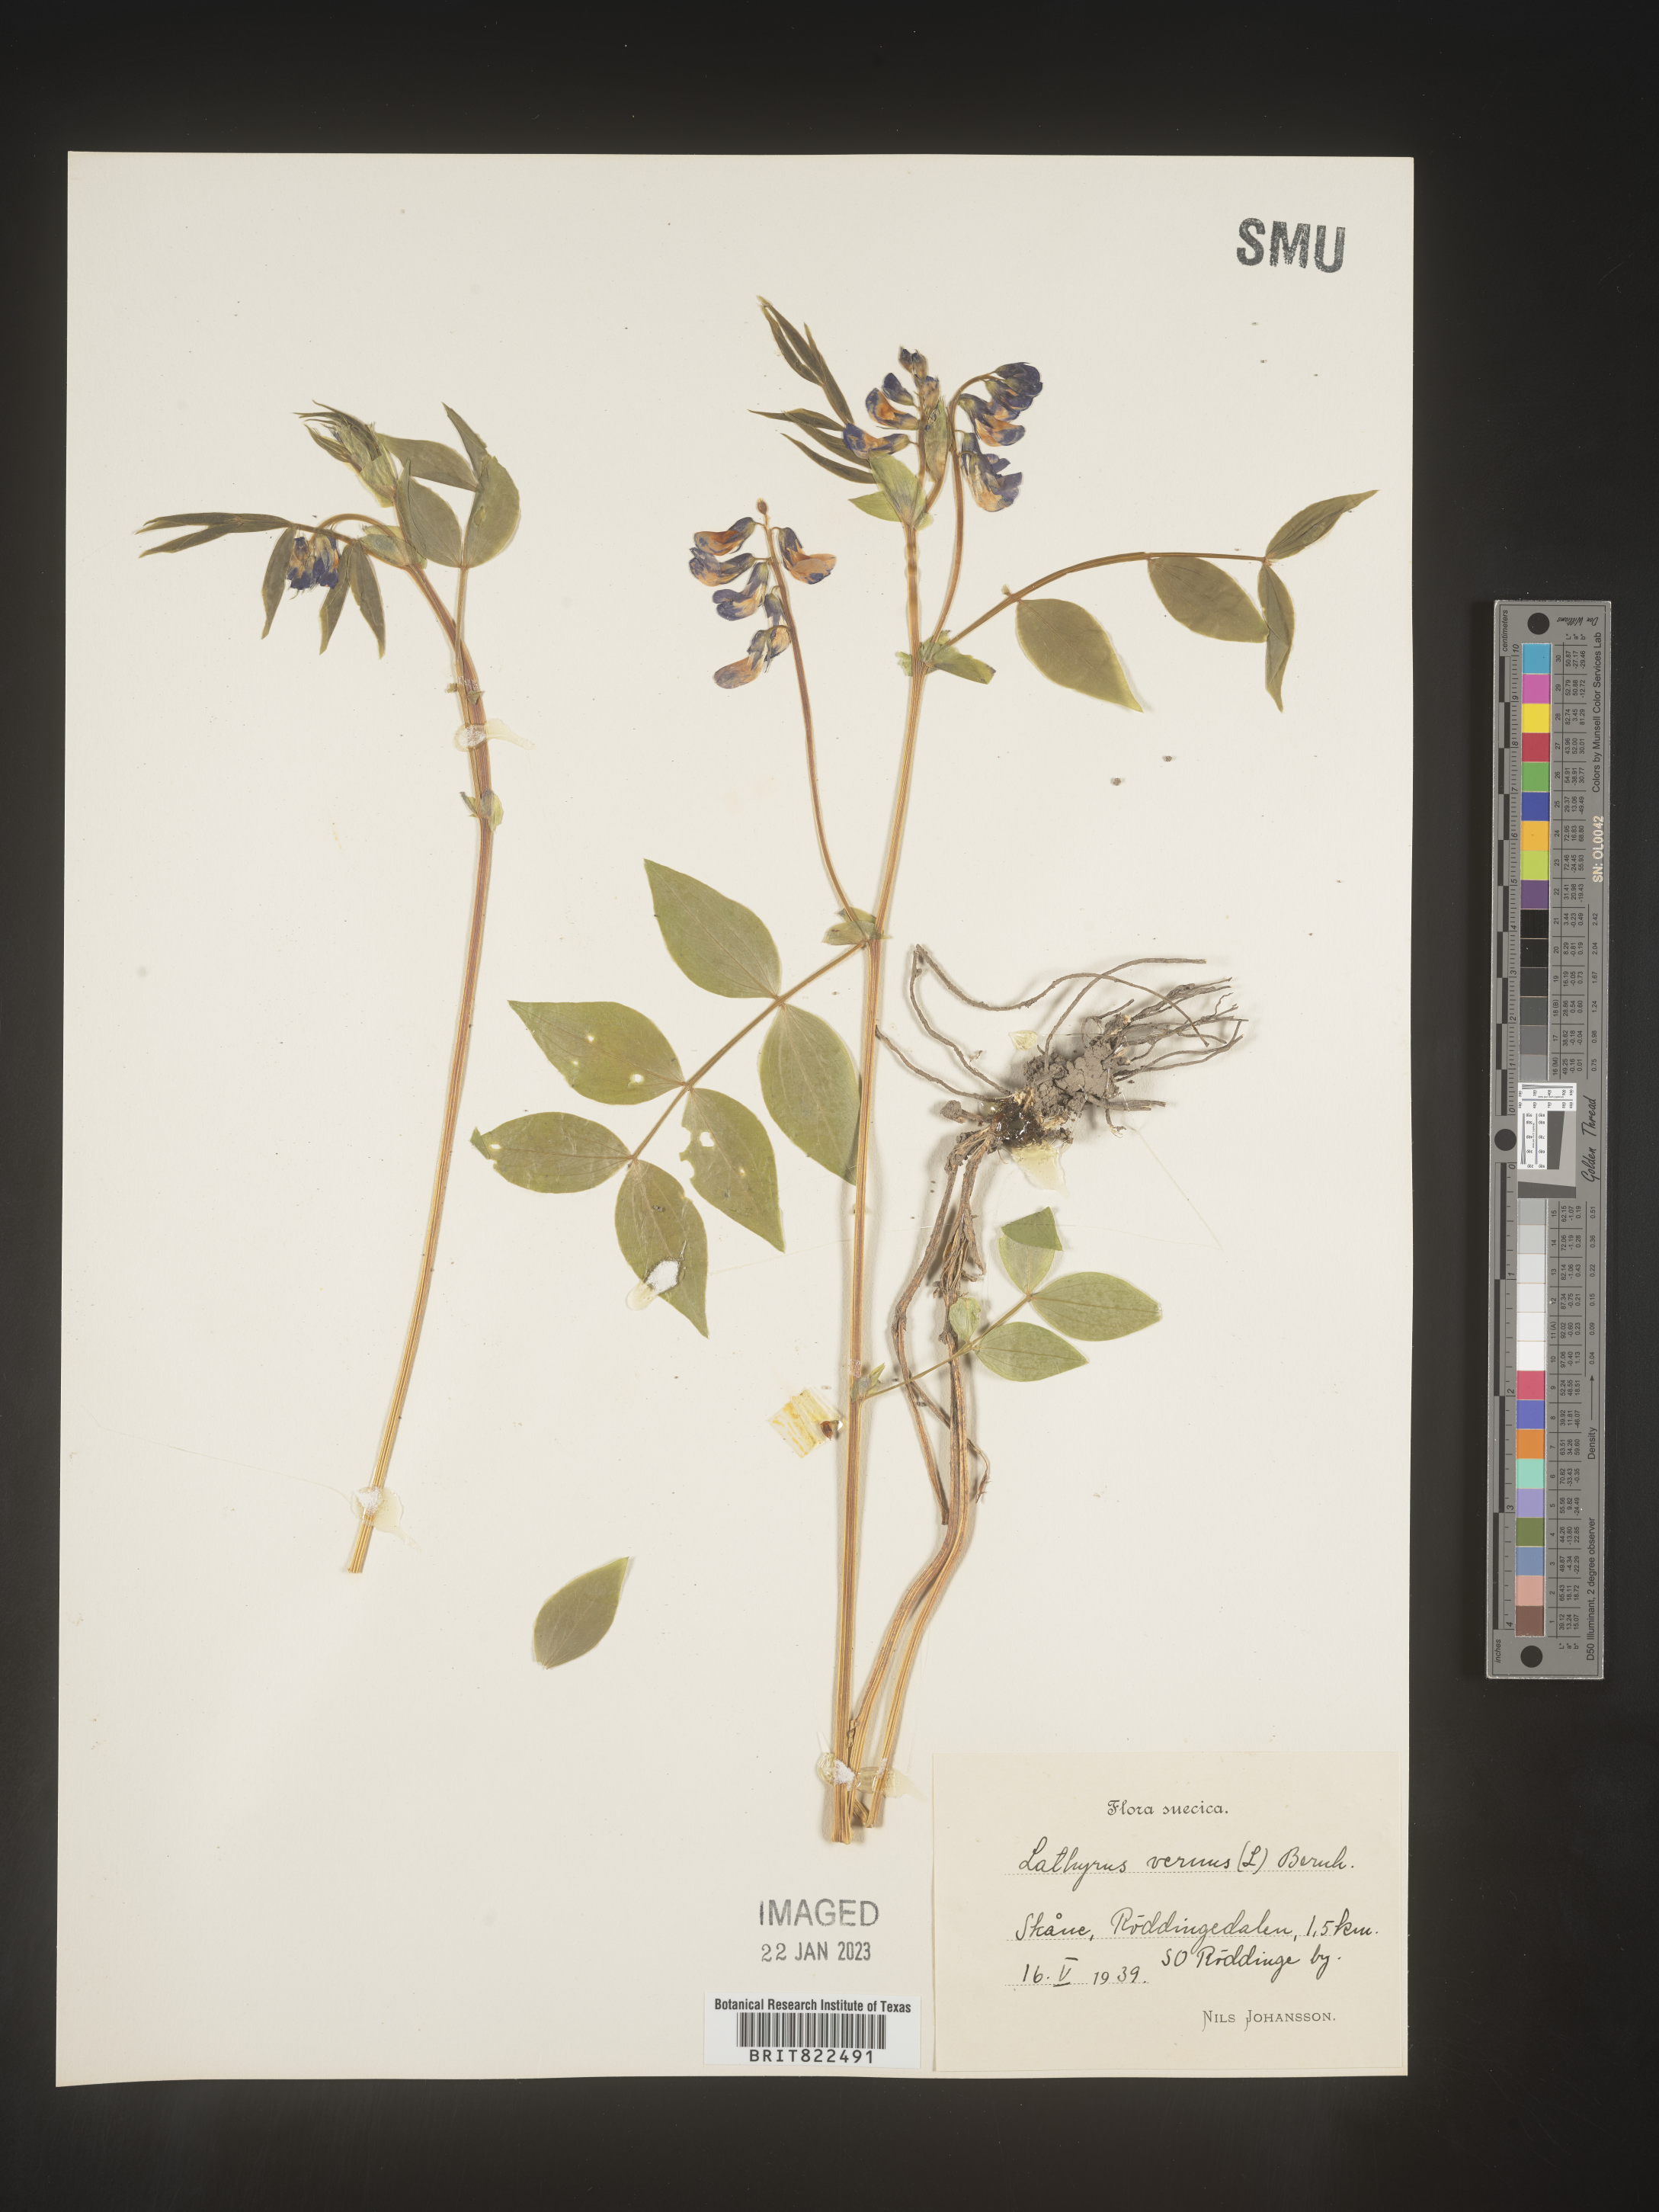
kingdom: Plantae
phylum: Tracheophyta
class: Magnoliopsida
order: Fabales
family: Fabaceae
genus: Lathyrus
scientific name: Lathyrus
